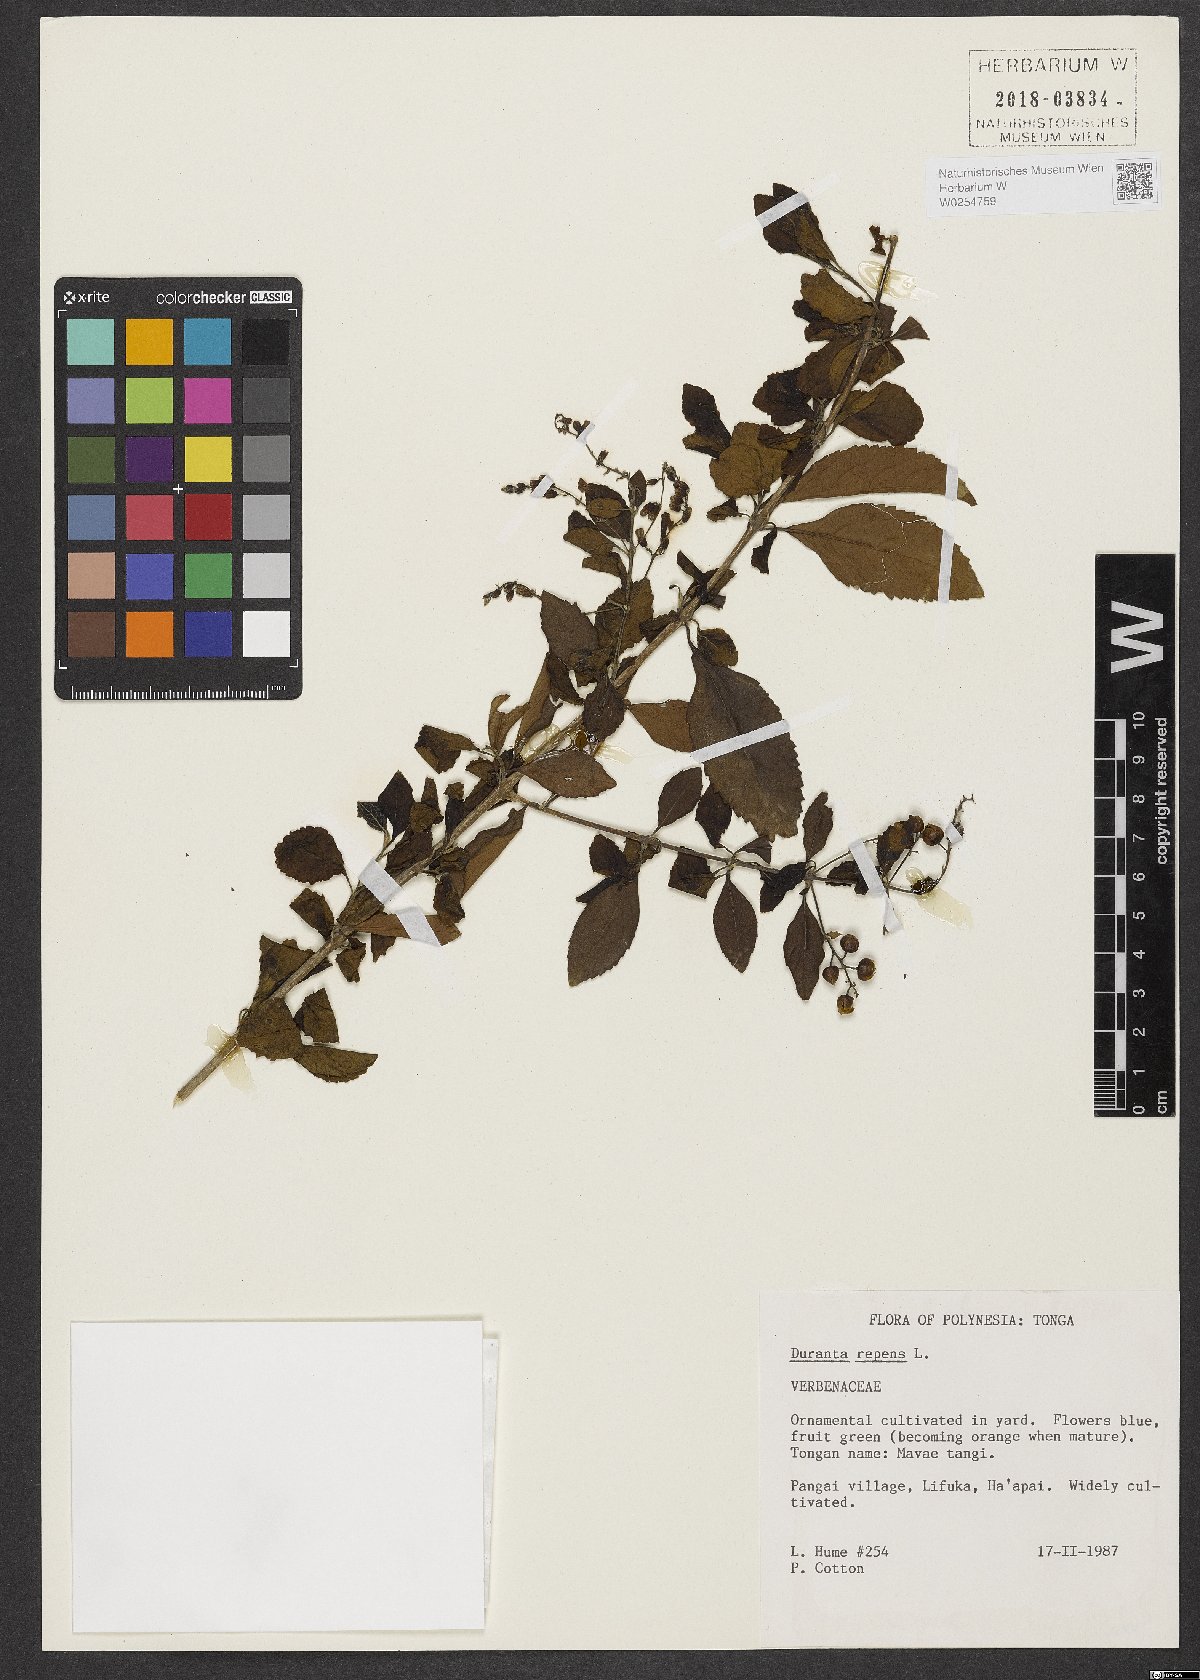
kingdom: Plantae
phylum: Tracheophyta
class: Magnoliopsida
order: Lamiales
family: Verbenaceae
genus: Duranta
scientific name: Duranta erecta
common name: Golden dewdrops
